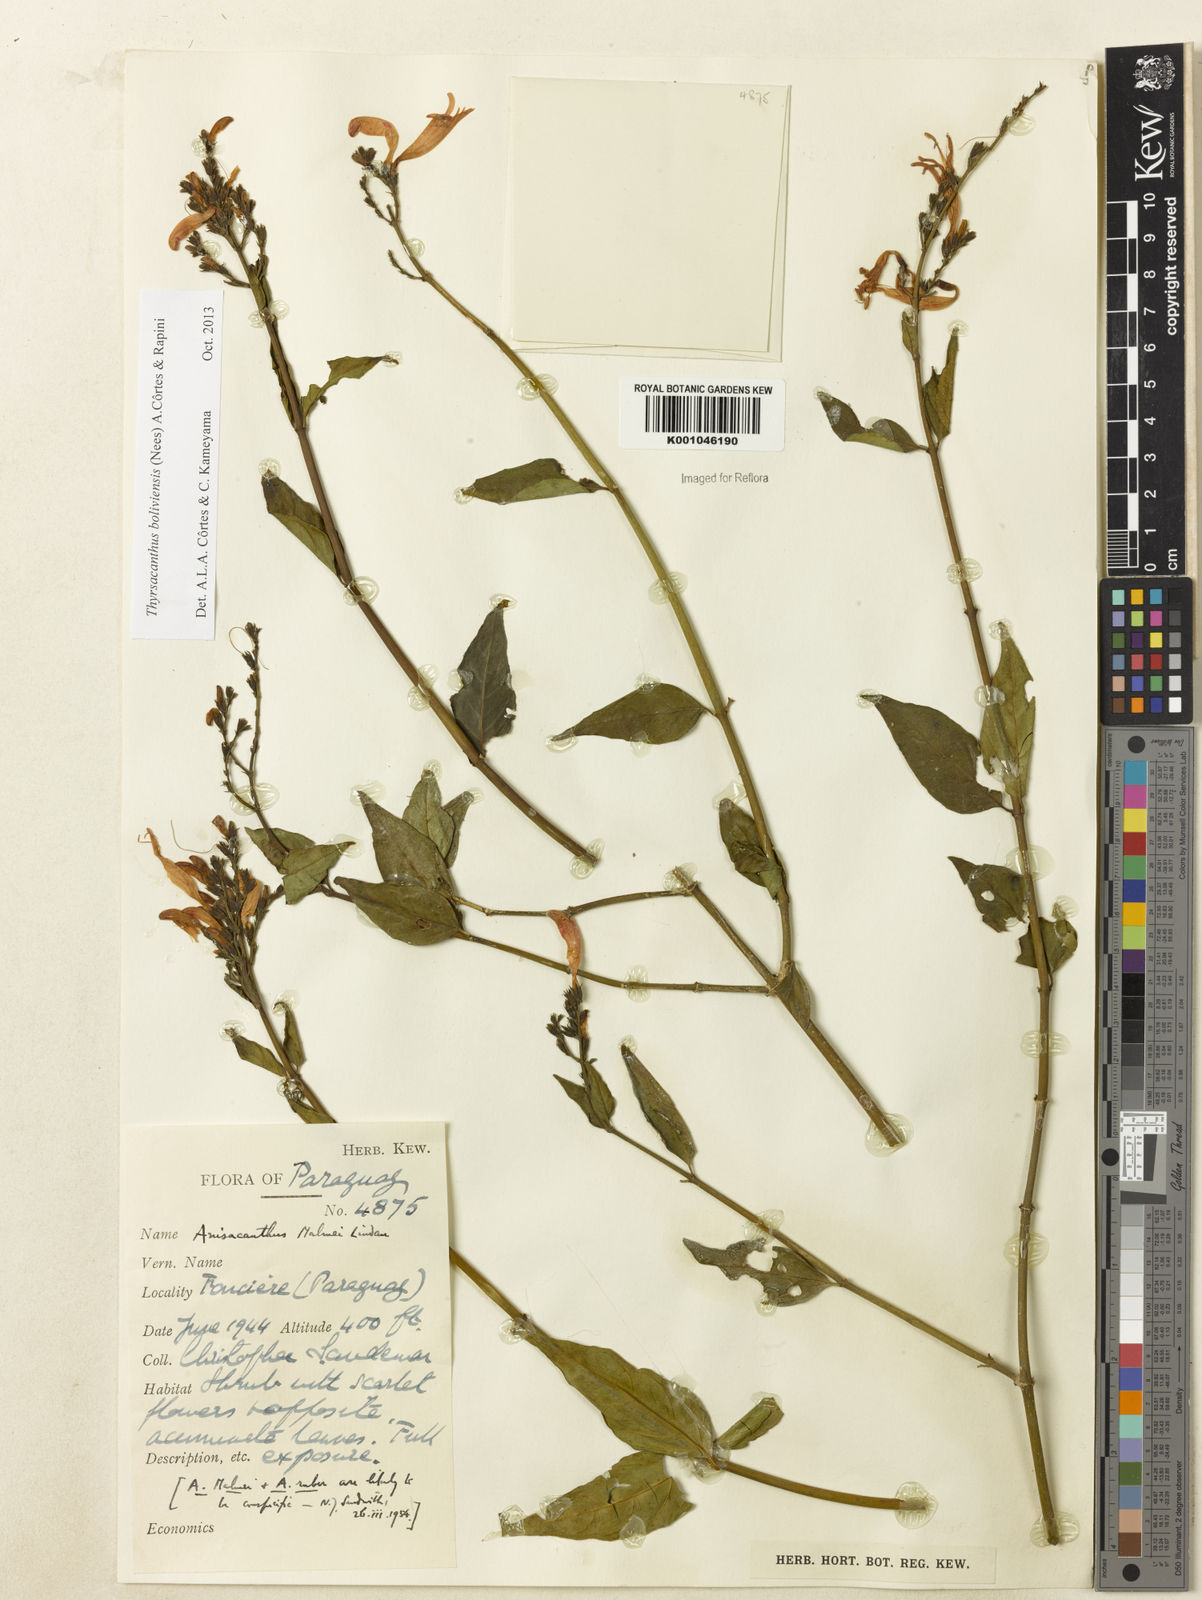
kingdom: Plantae
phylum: Tracheophyta
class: Magnoliopsida
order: Lamiales
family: Acanthaceae
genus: Thyrsacanthus
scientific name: Thyrsacanthus boliviensis
